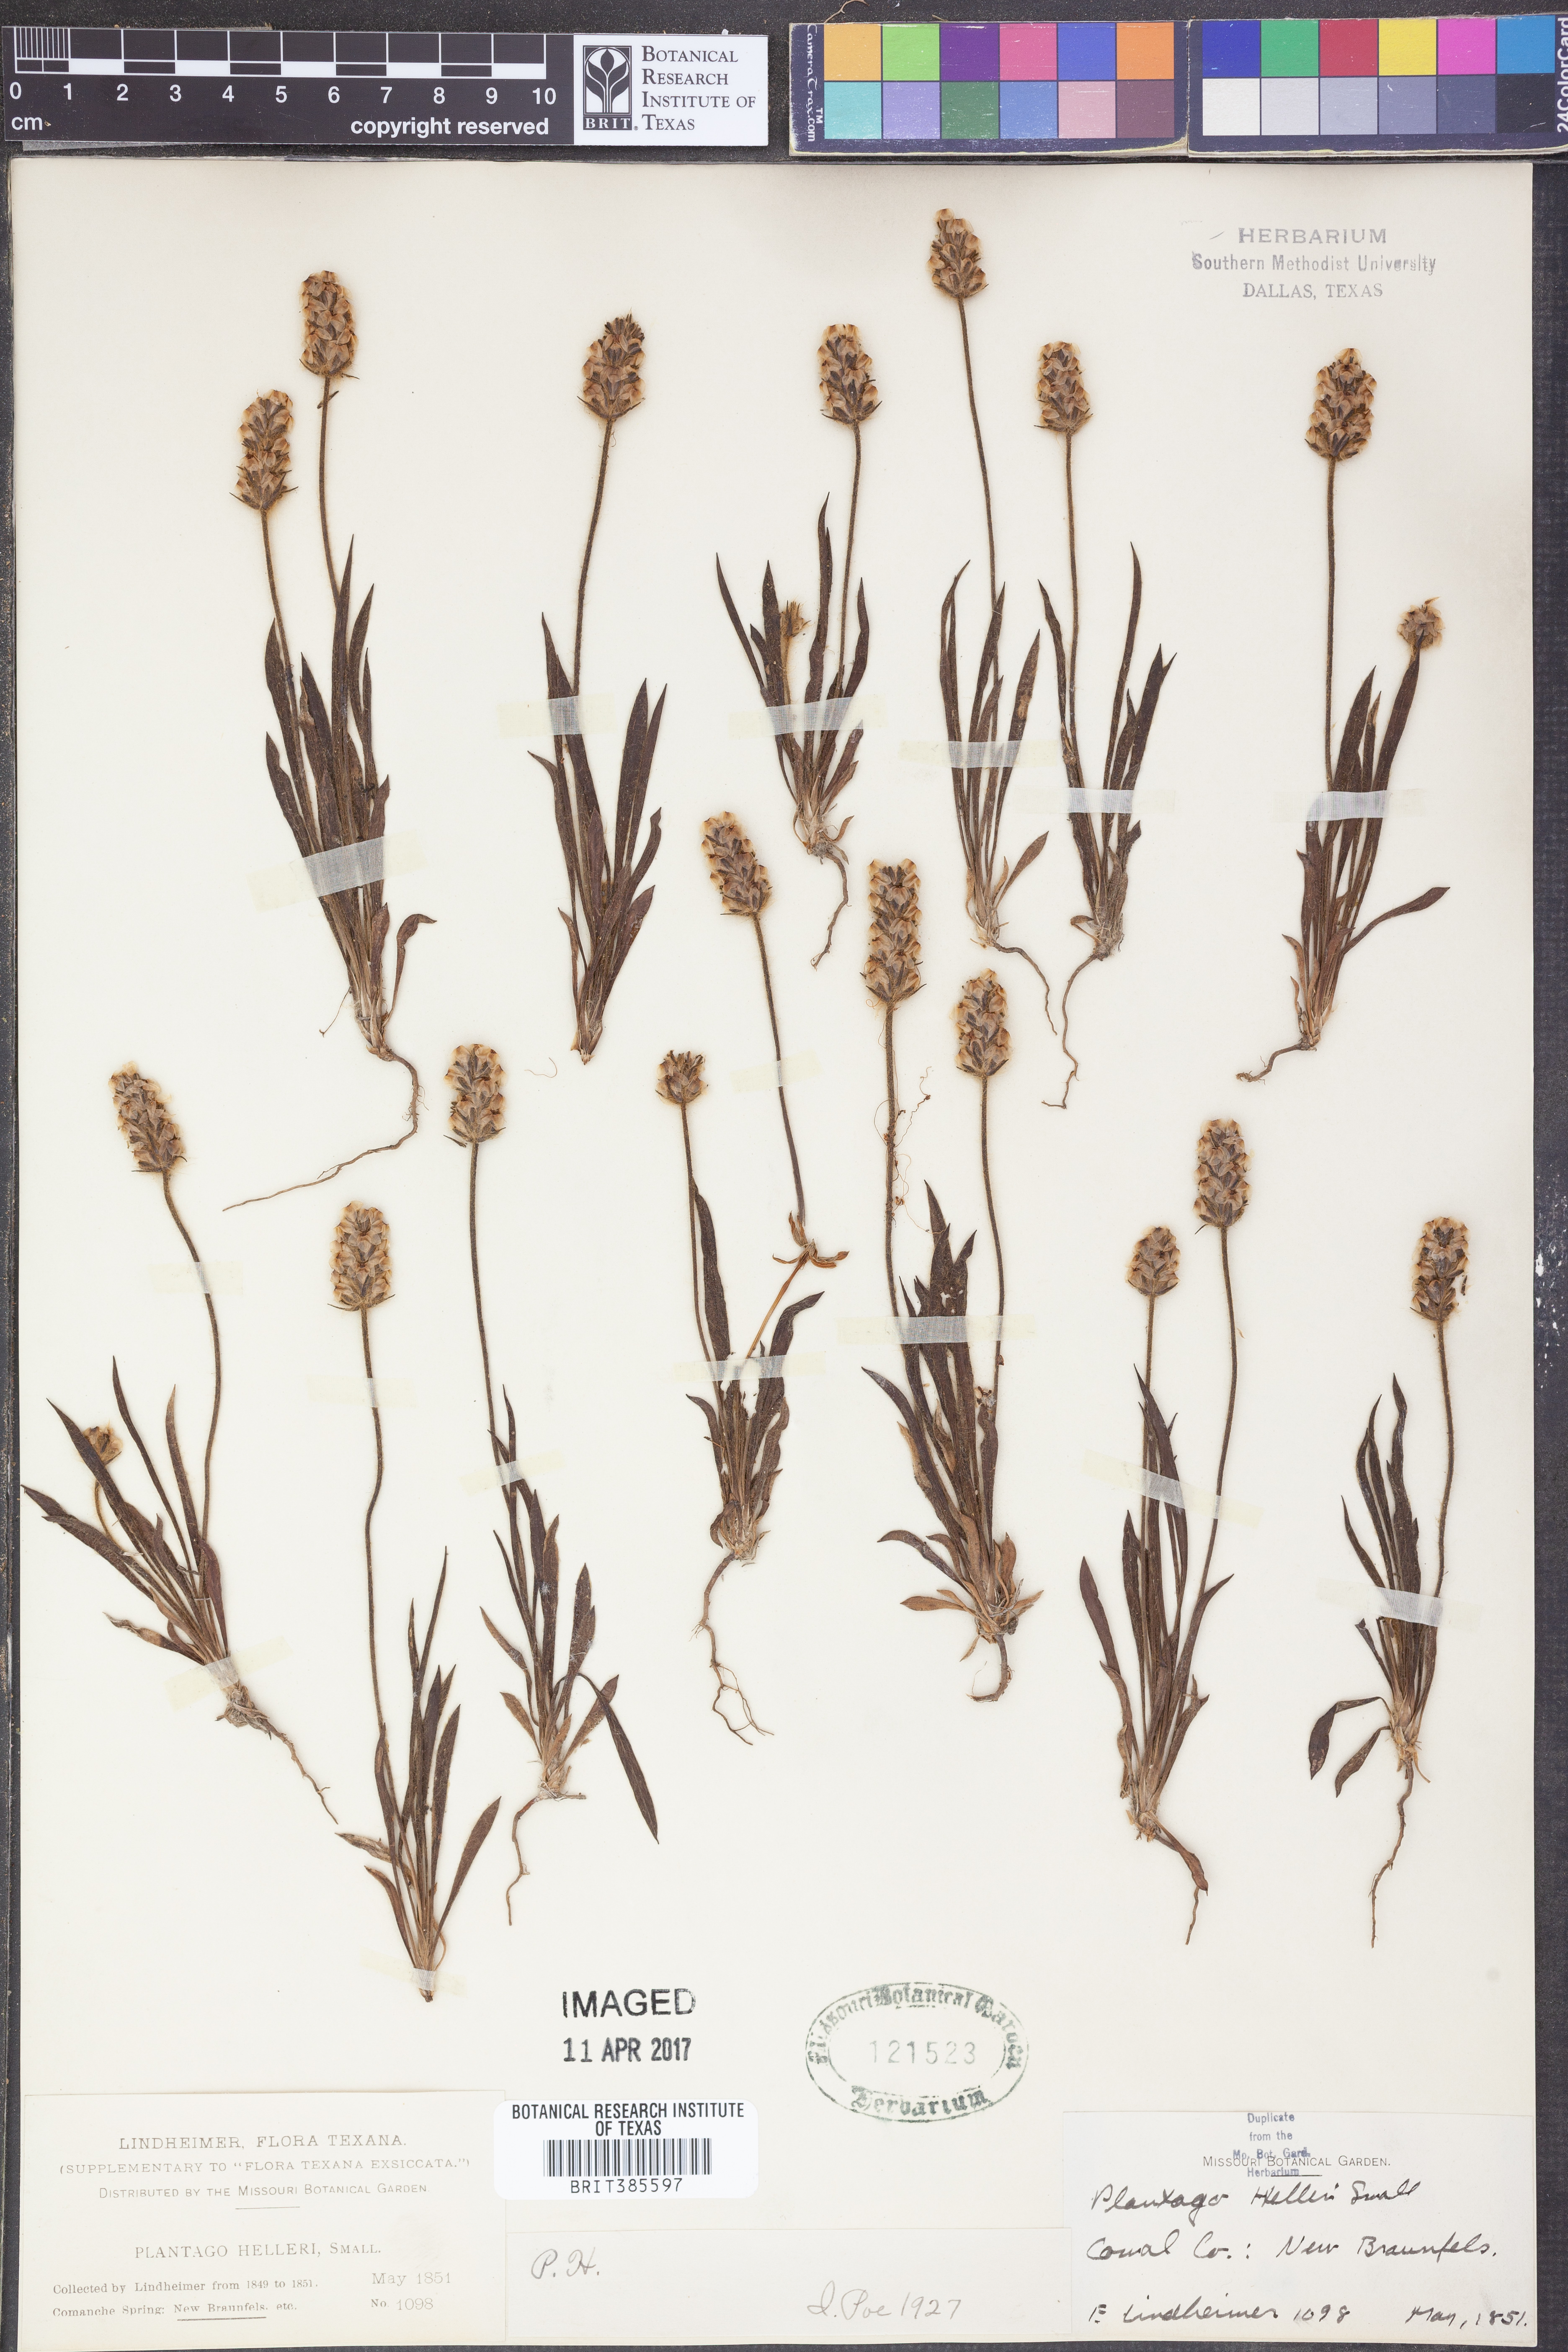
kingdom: Plantae
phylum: Tracheophyta
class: Magnoliopsida
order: Lamiales
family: Plantaginaceae
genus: Plantago
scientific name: Plantago helleri
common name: Heller's plantain
